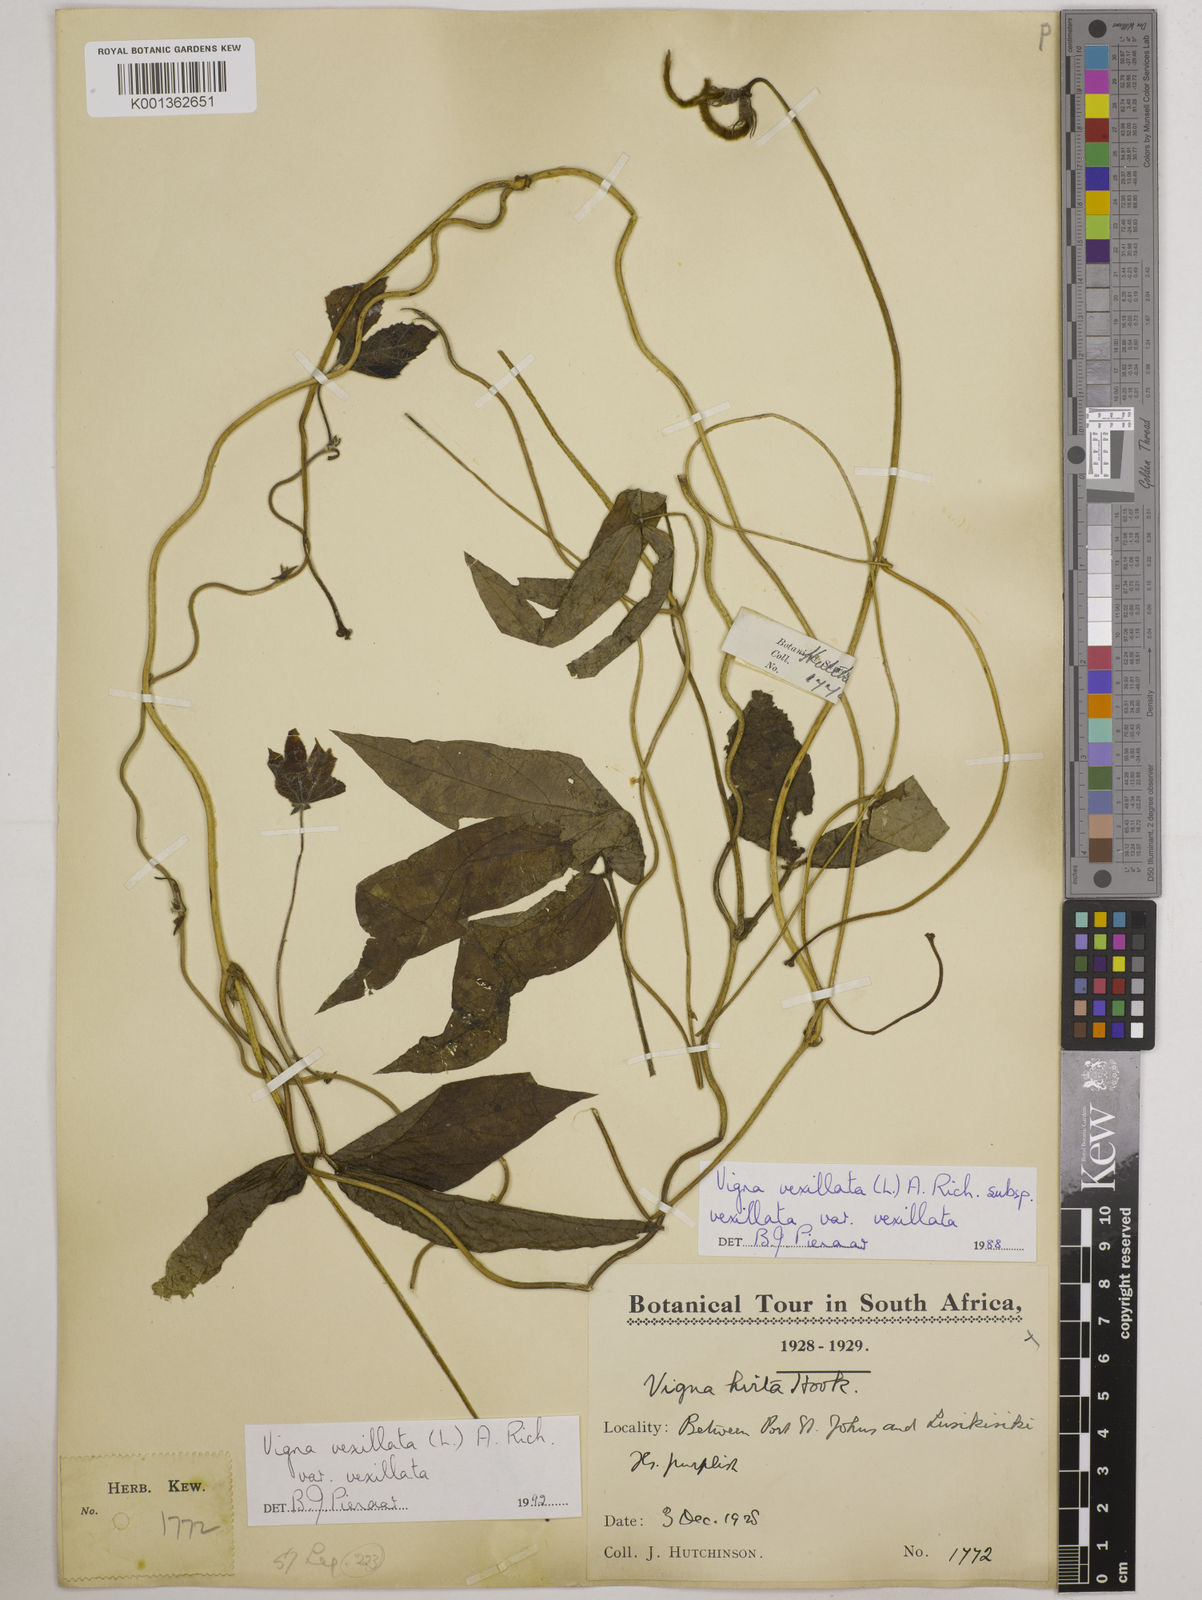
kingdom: Plantae
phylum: Tracheophyta
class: Magnoliopsida
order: Fabales
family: Fabaceae
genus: Vigna
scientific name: Vigna vexillata
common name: Zombi pea
